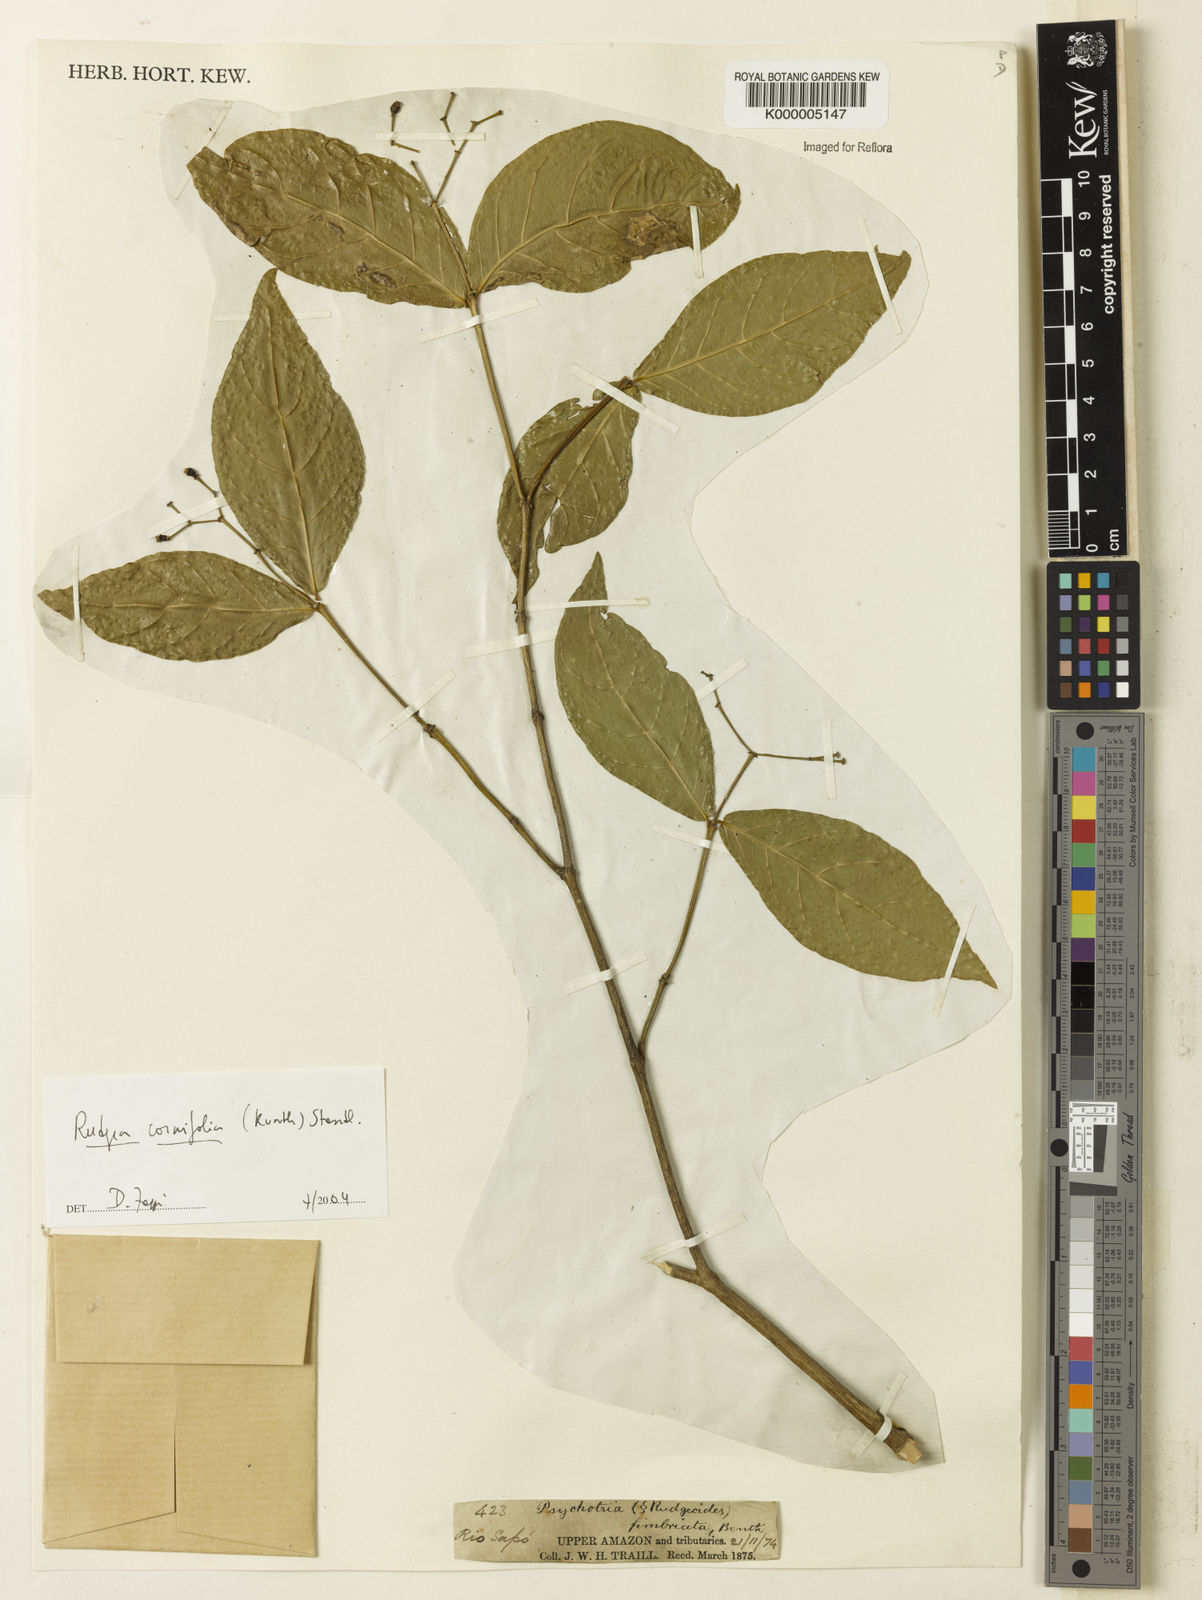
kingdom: Plantae
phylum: Tracheophyta
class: Magnoliopsida
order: Gentianales
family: Rubiaceae
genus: Rudgea
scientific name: Rudgea cornifolia
